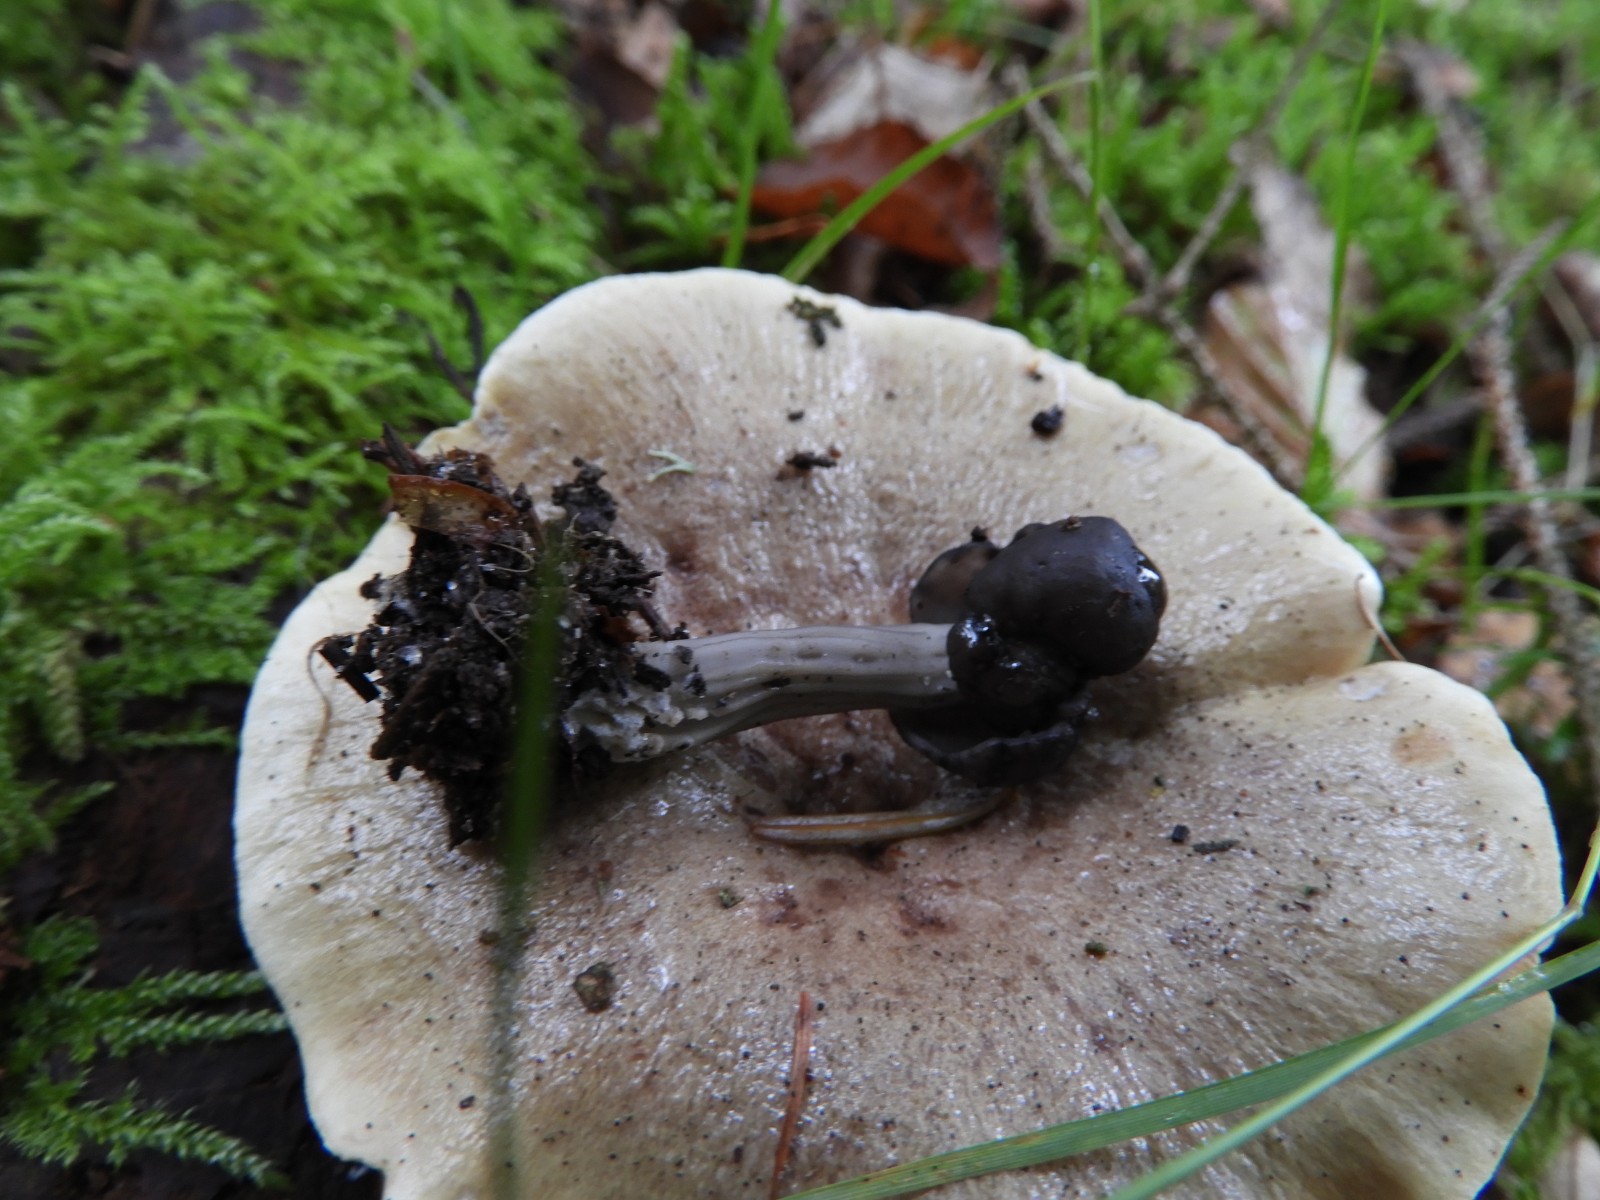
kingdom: Fungi
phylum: Ascomycota
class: Pezizomycetes
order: Pezizales
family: Helvellaceae
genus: Helvella
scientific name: Helvella lacunosa
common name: grubet foldhat
